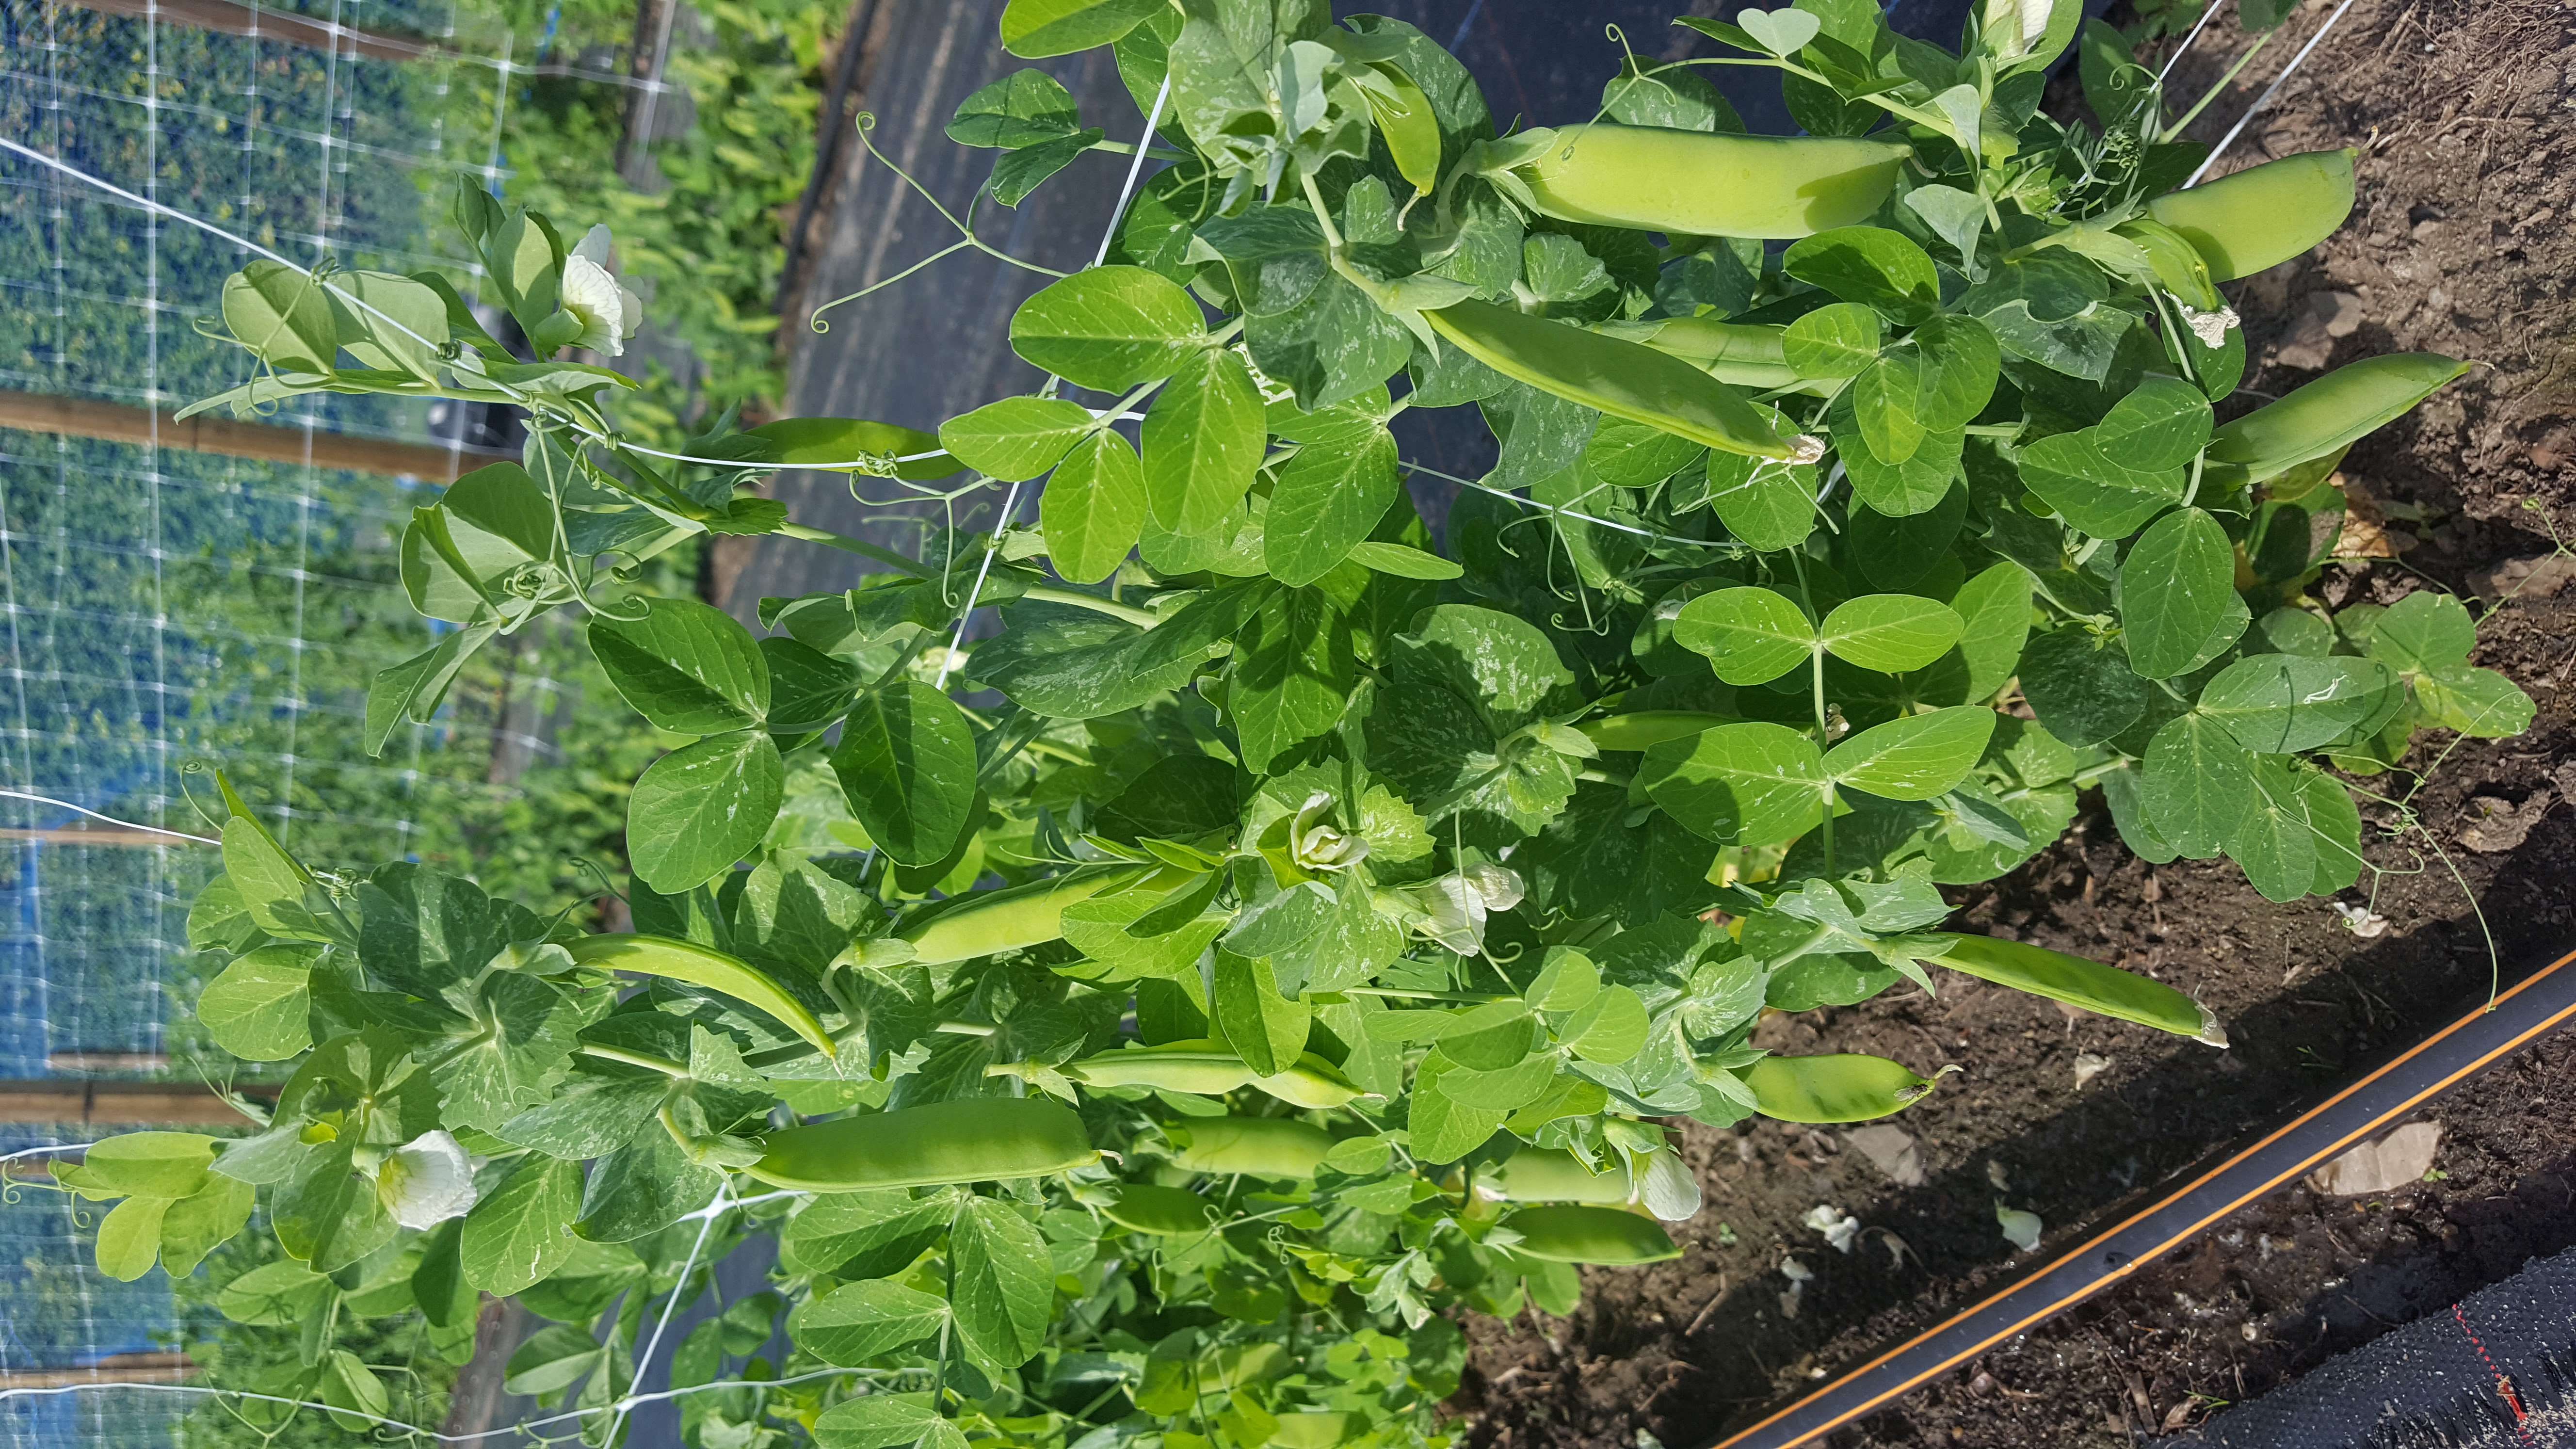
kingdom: Plantae
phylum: Tracheophyta
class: Magnoliopsida
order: Fabales
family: Fabaceae
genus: Lathyrus
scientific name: Lathyrus oleraceus
